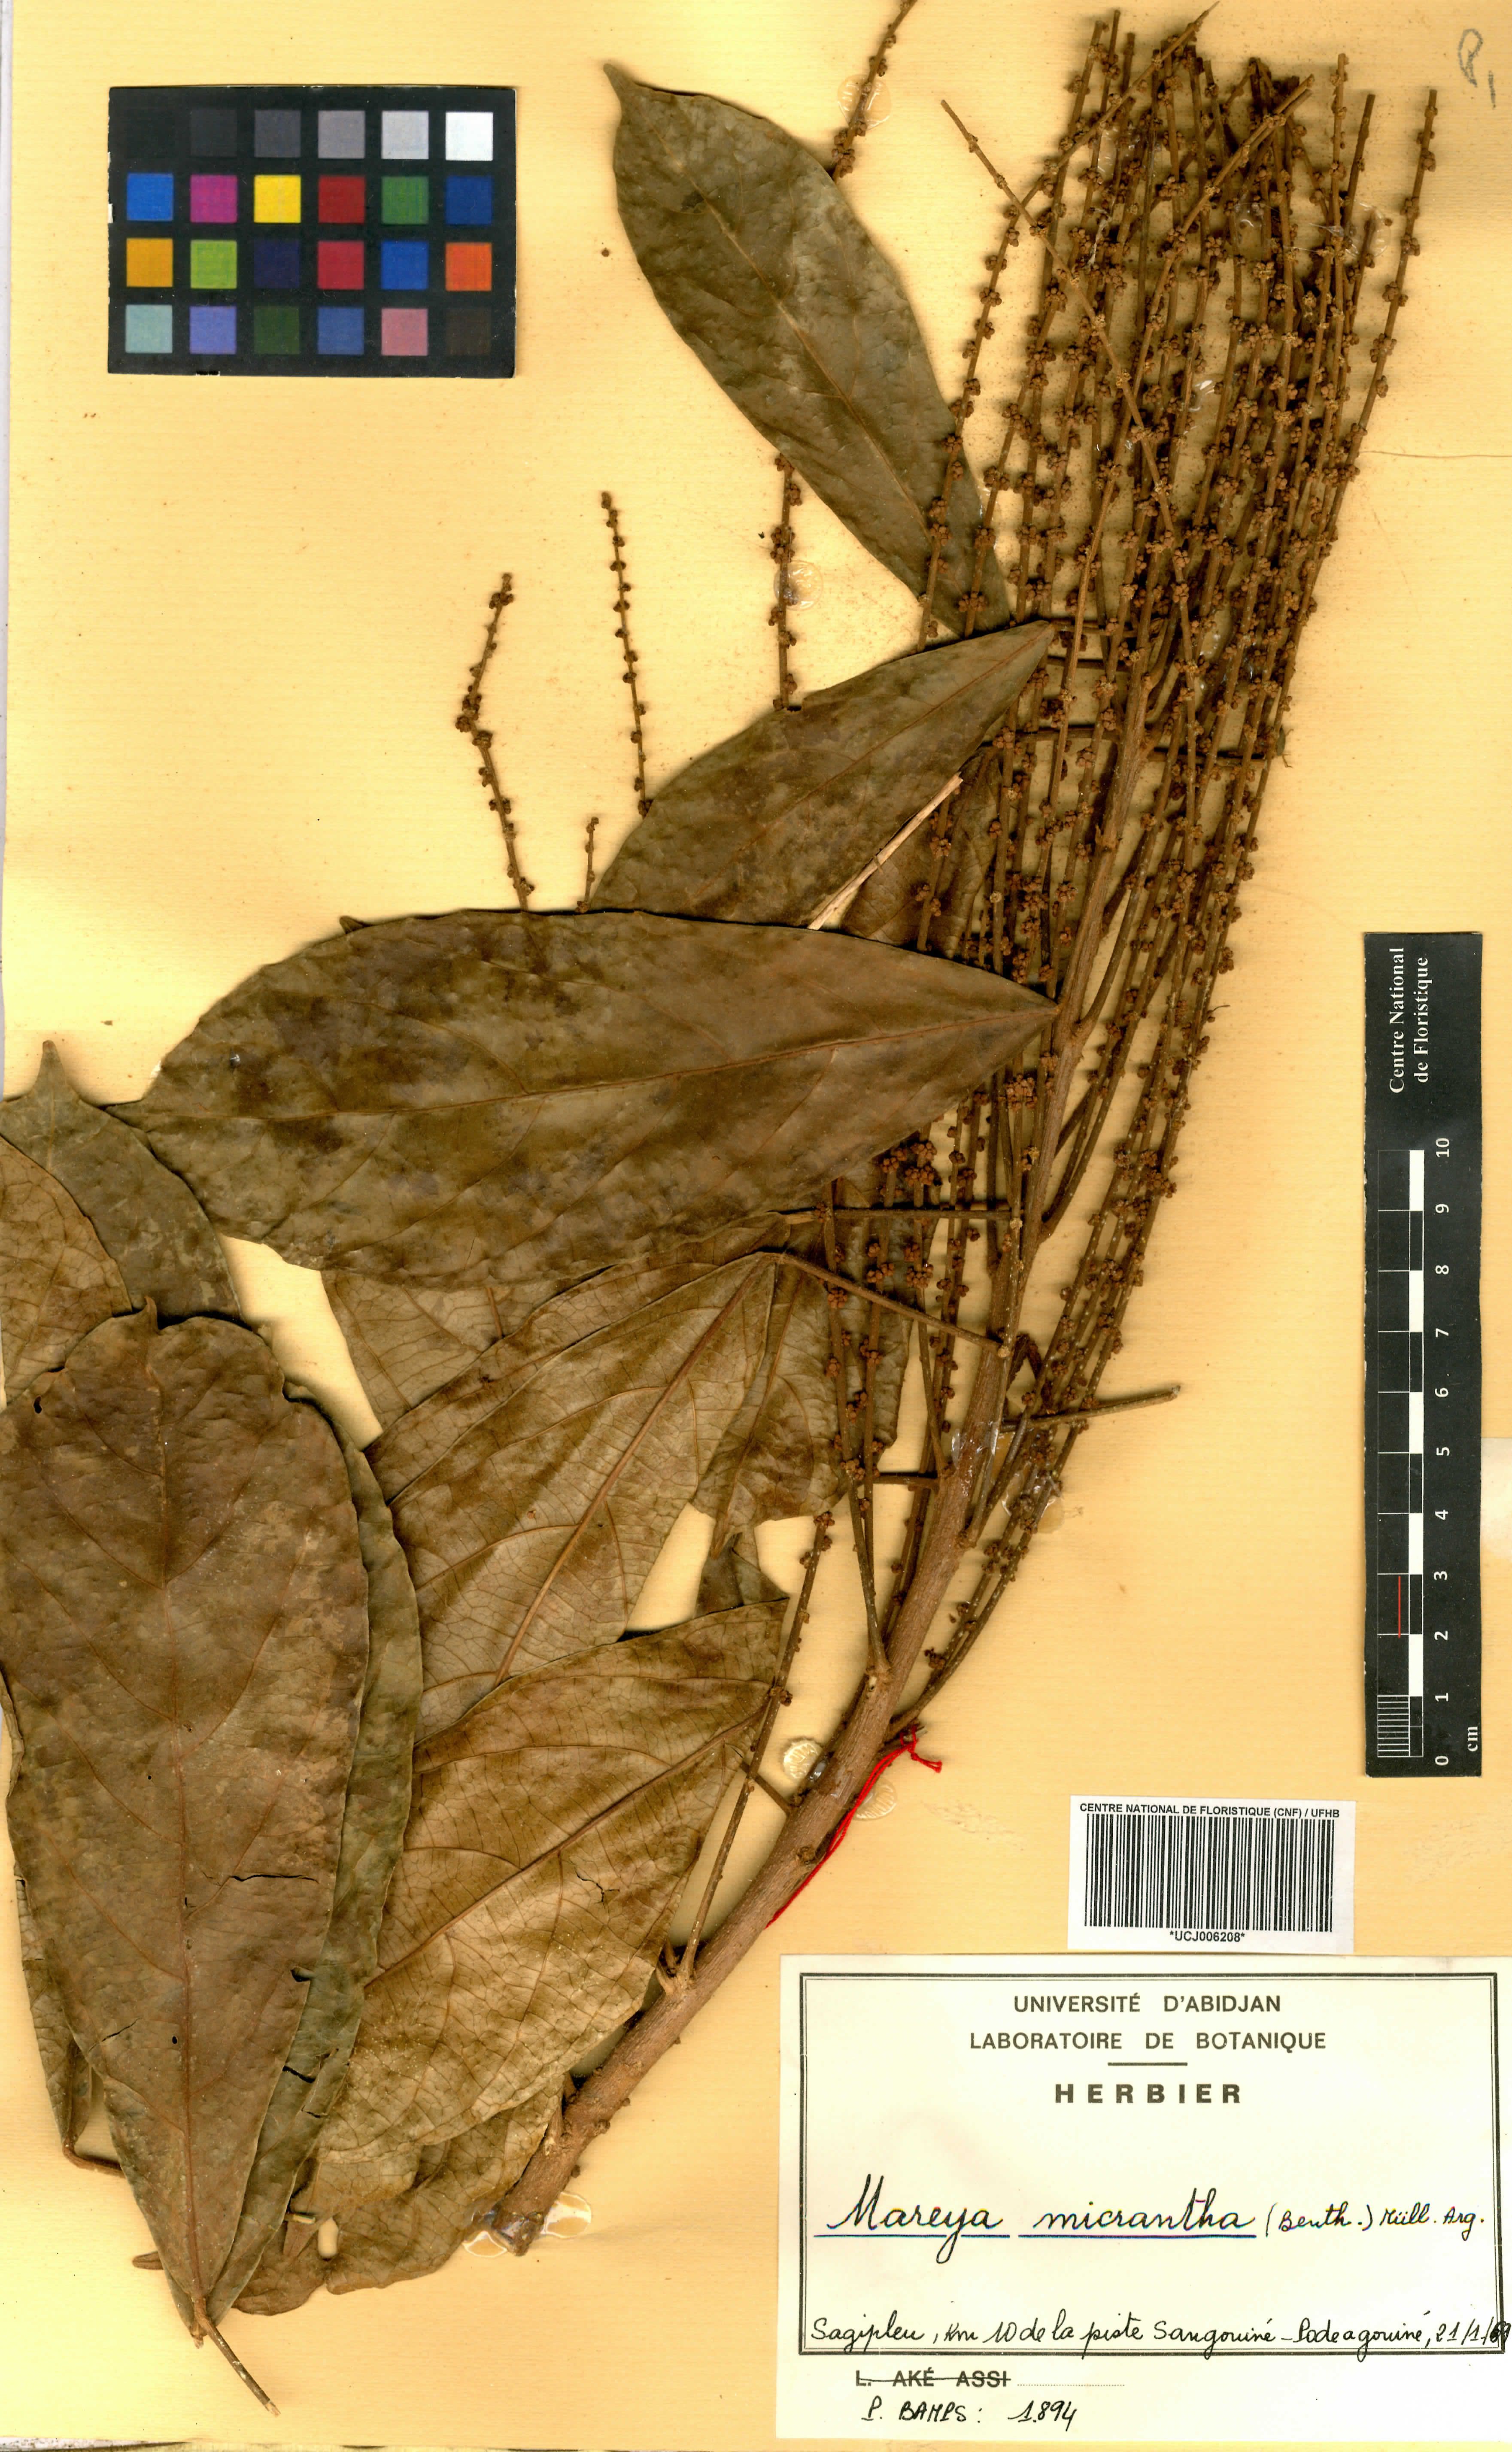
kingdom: Plantae
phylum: Tracheophyta
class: Magnoliopsida
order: Malpighiales
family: Euphorbiaceae
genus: Mareya
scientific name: Mareya micrantha
